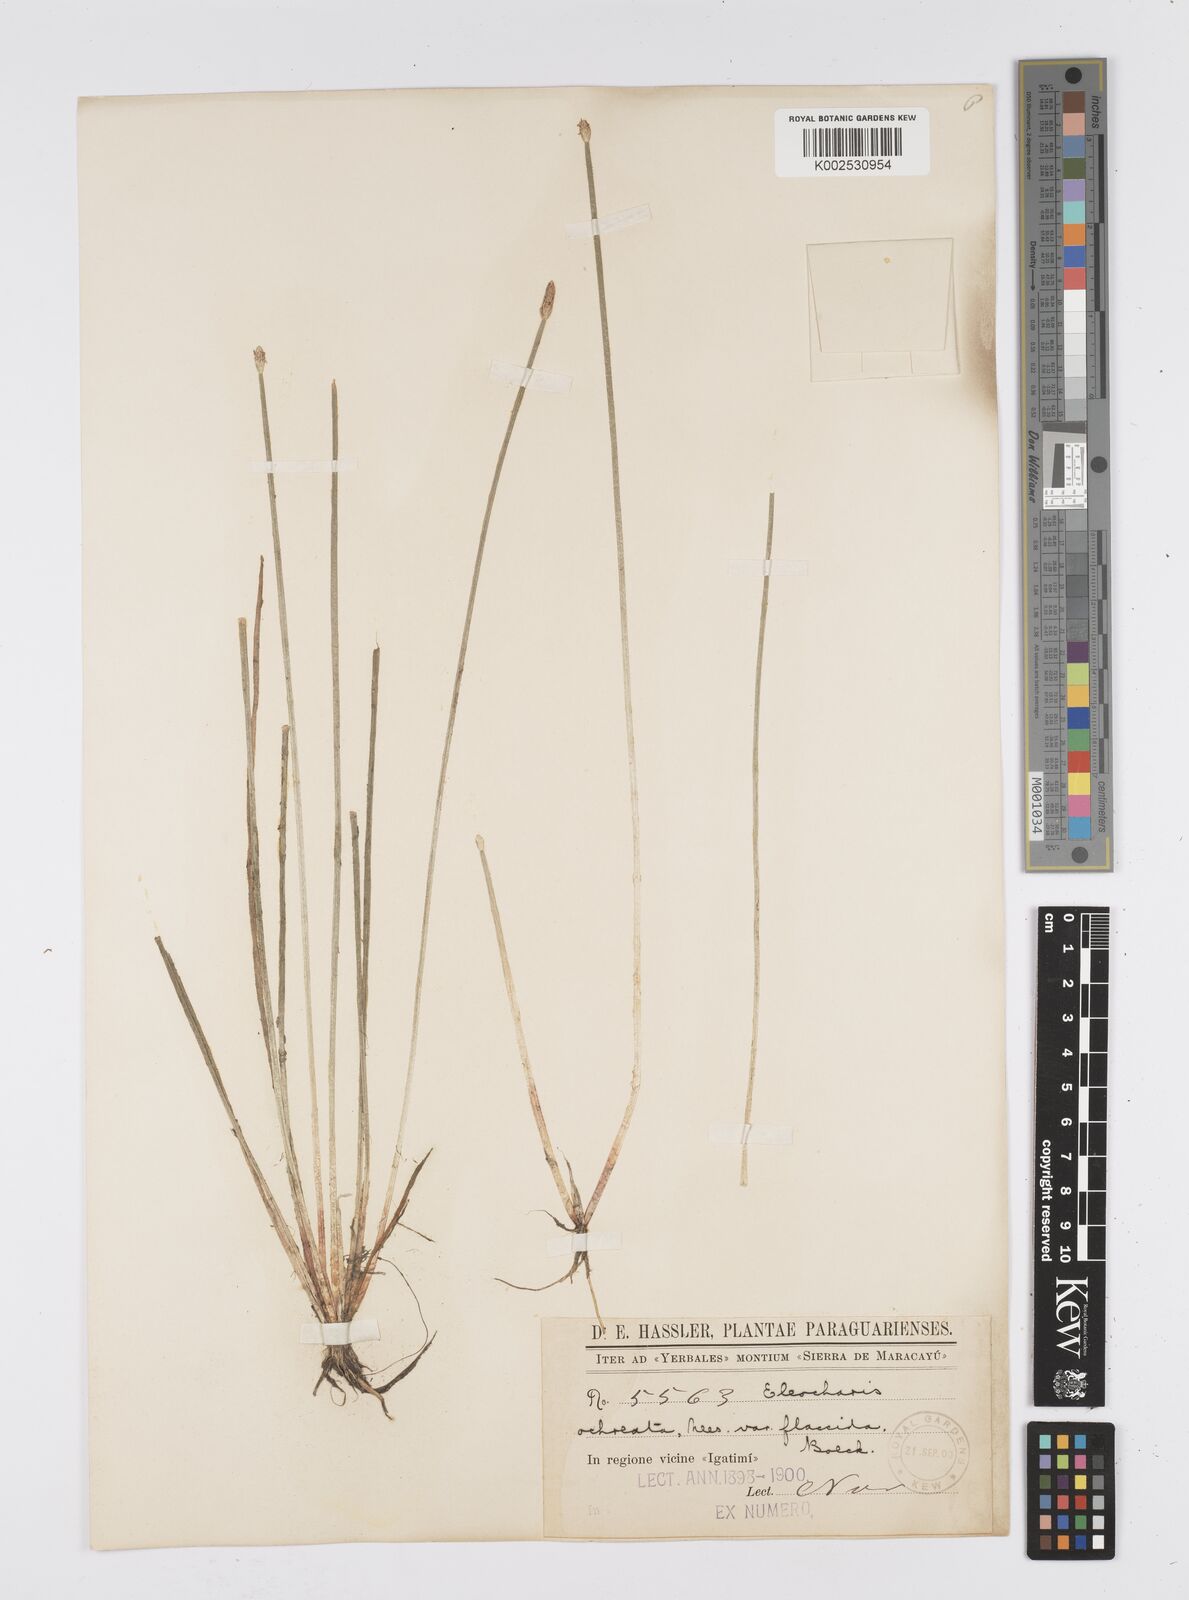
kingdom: Plantae
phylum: Tracheophyta
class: Liliopsida
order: Poales
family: Cyperaceae
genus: Eleocharis
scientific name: Eleocharis flavescens
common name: Yellow spikerush
